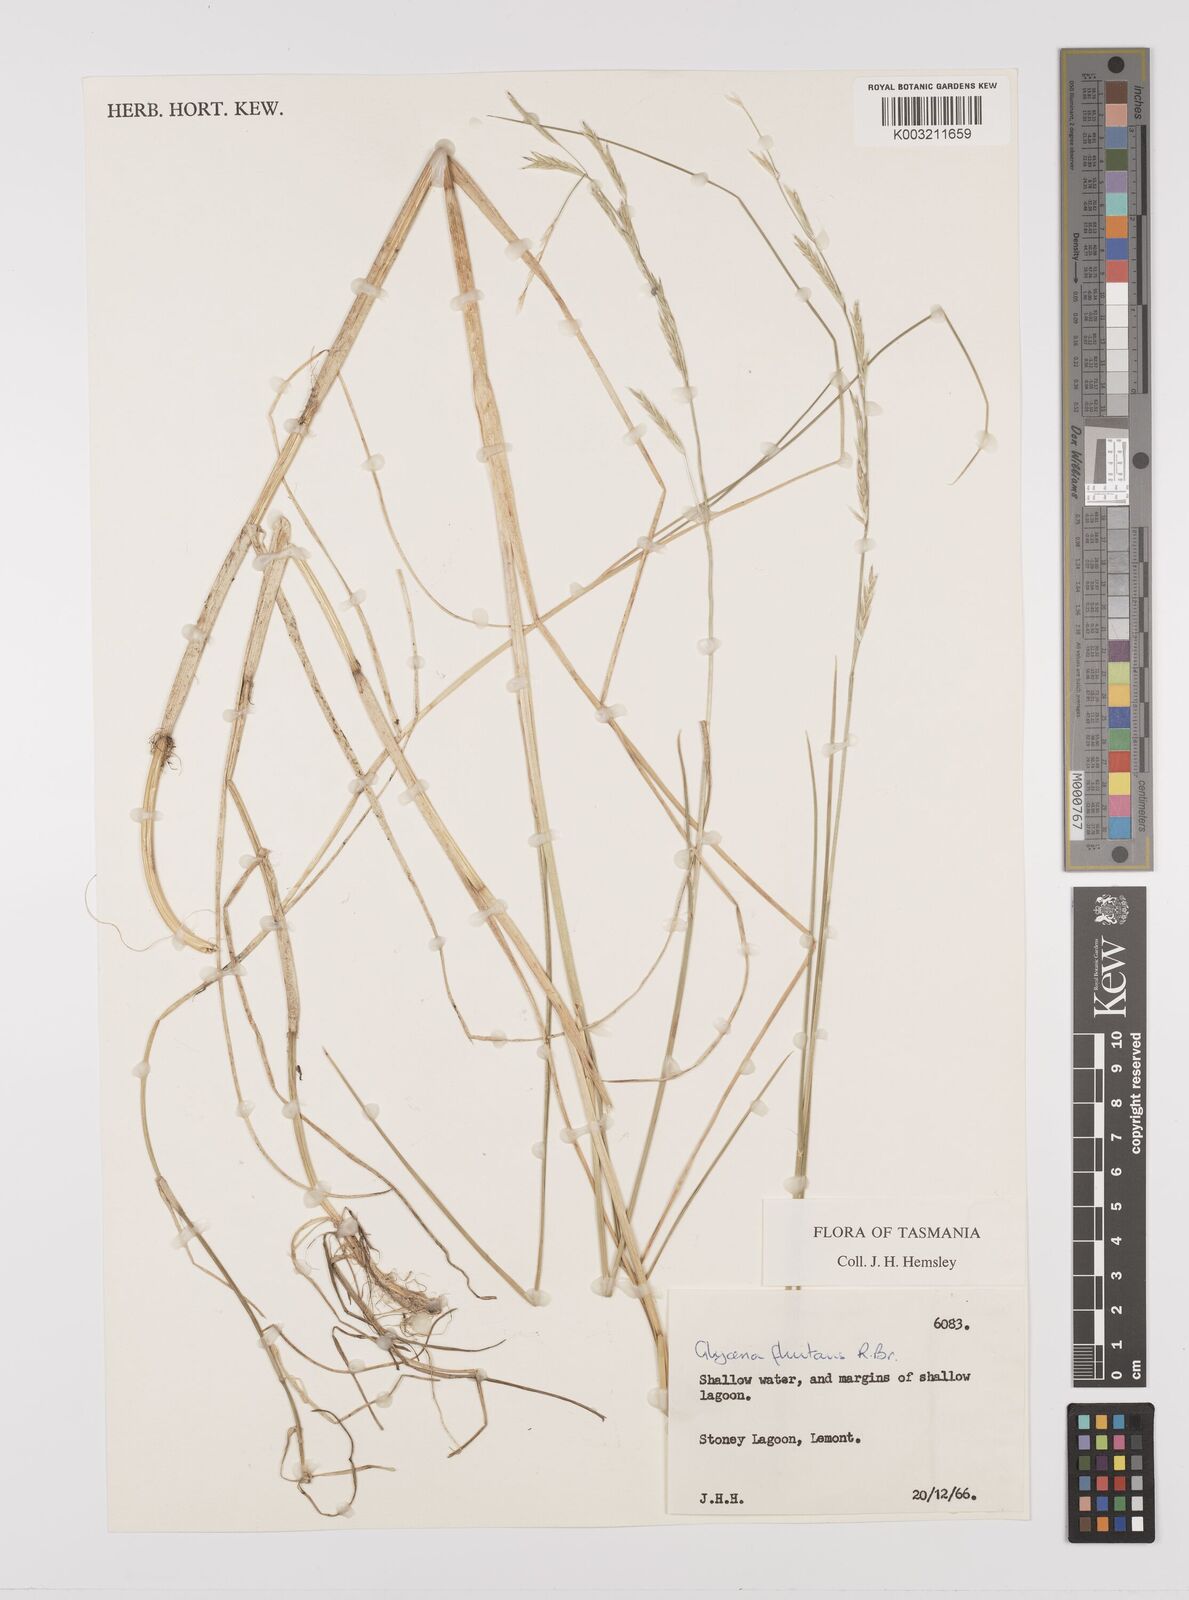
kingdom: Plantae
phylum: Tracheophyta
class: Liliopsida
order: Poales
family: Poaceae
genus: Glyceria
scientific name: Glyceria fluitans
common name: Floating sweet-grass
